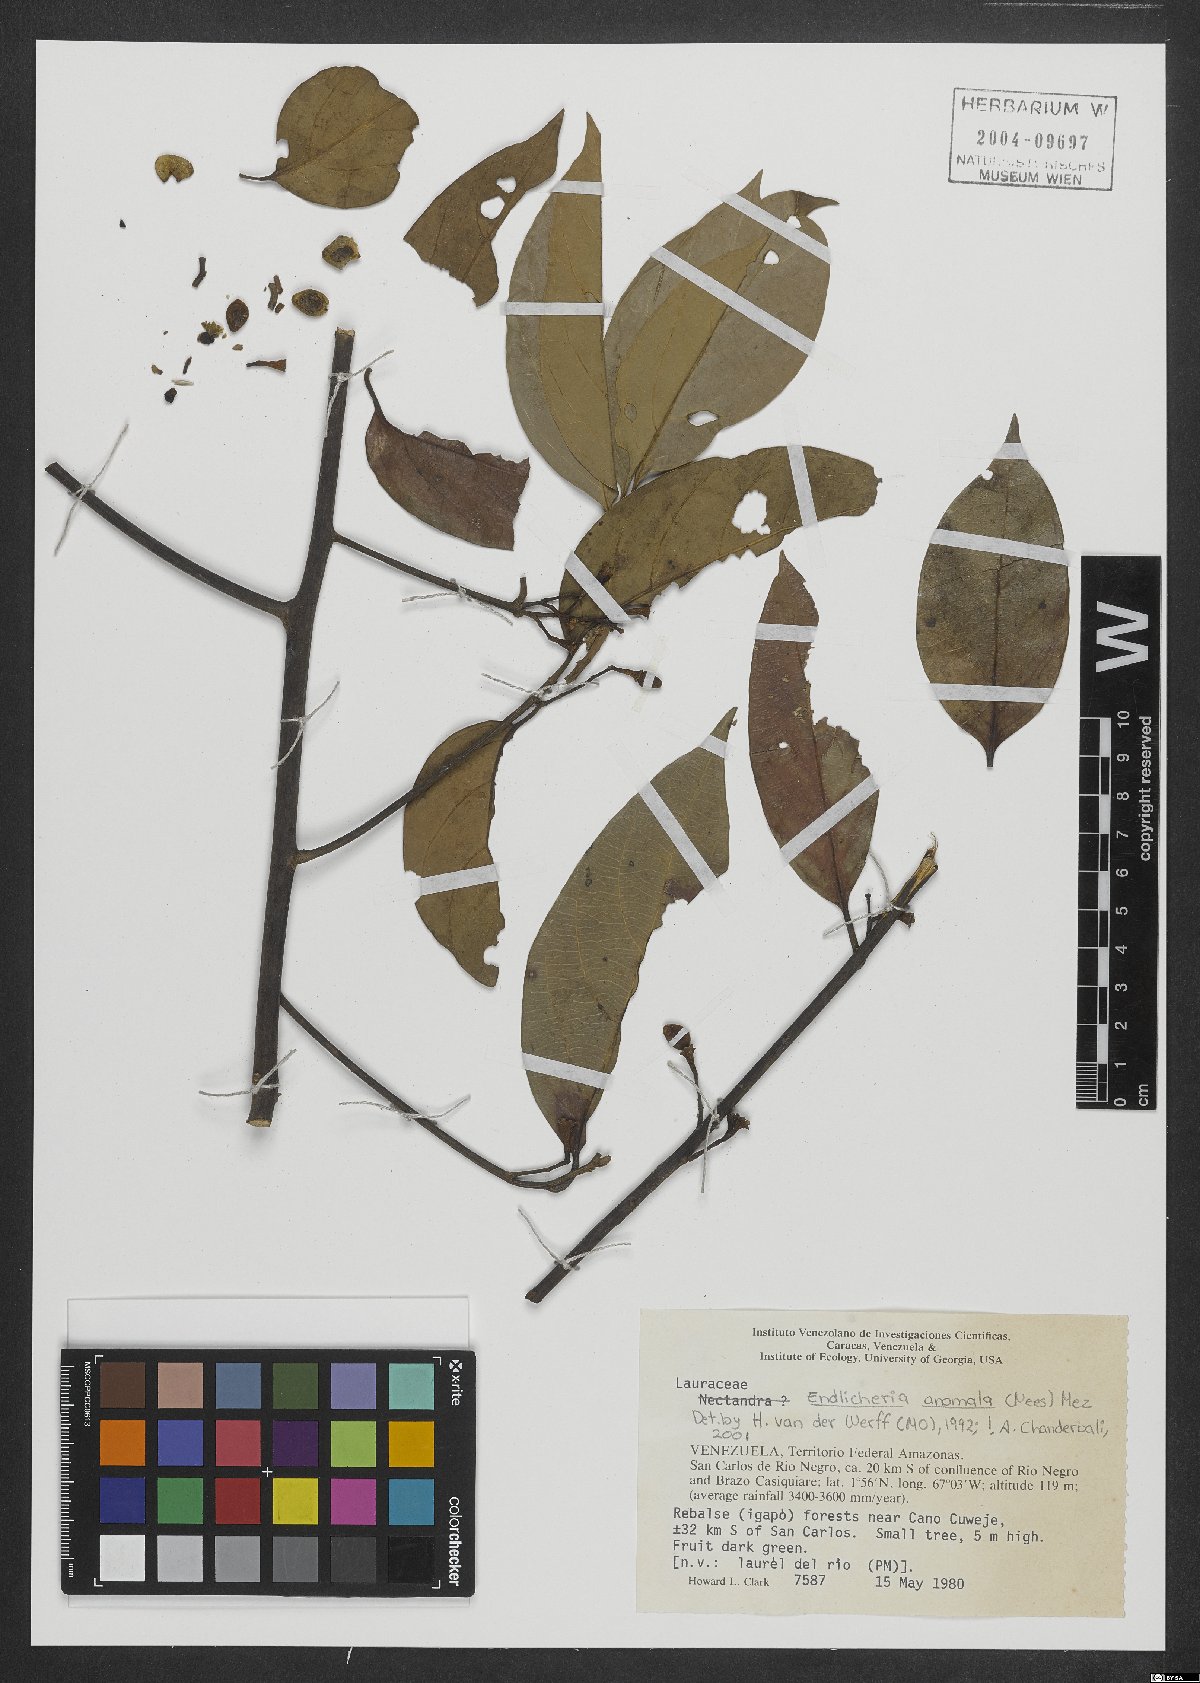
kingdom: Plantae
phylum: Tracheophyta
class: Magnoliopsida
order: Laurales
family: Lauraceae
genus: Endlicheria
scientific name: Endlicheria anomala
